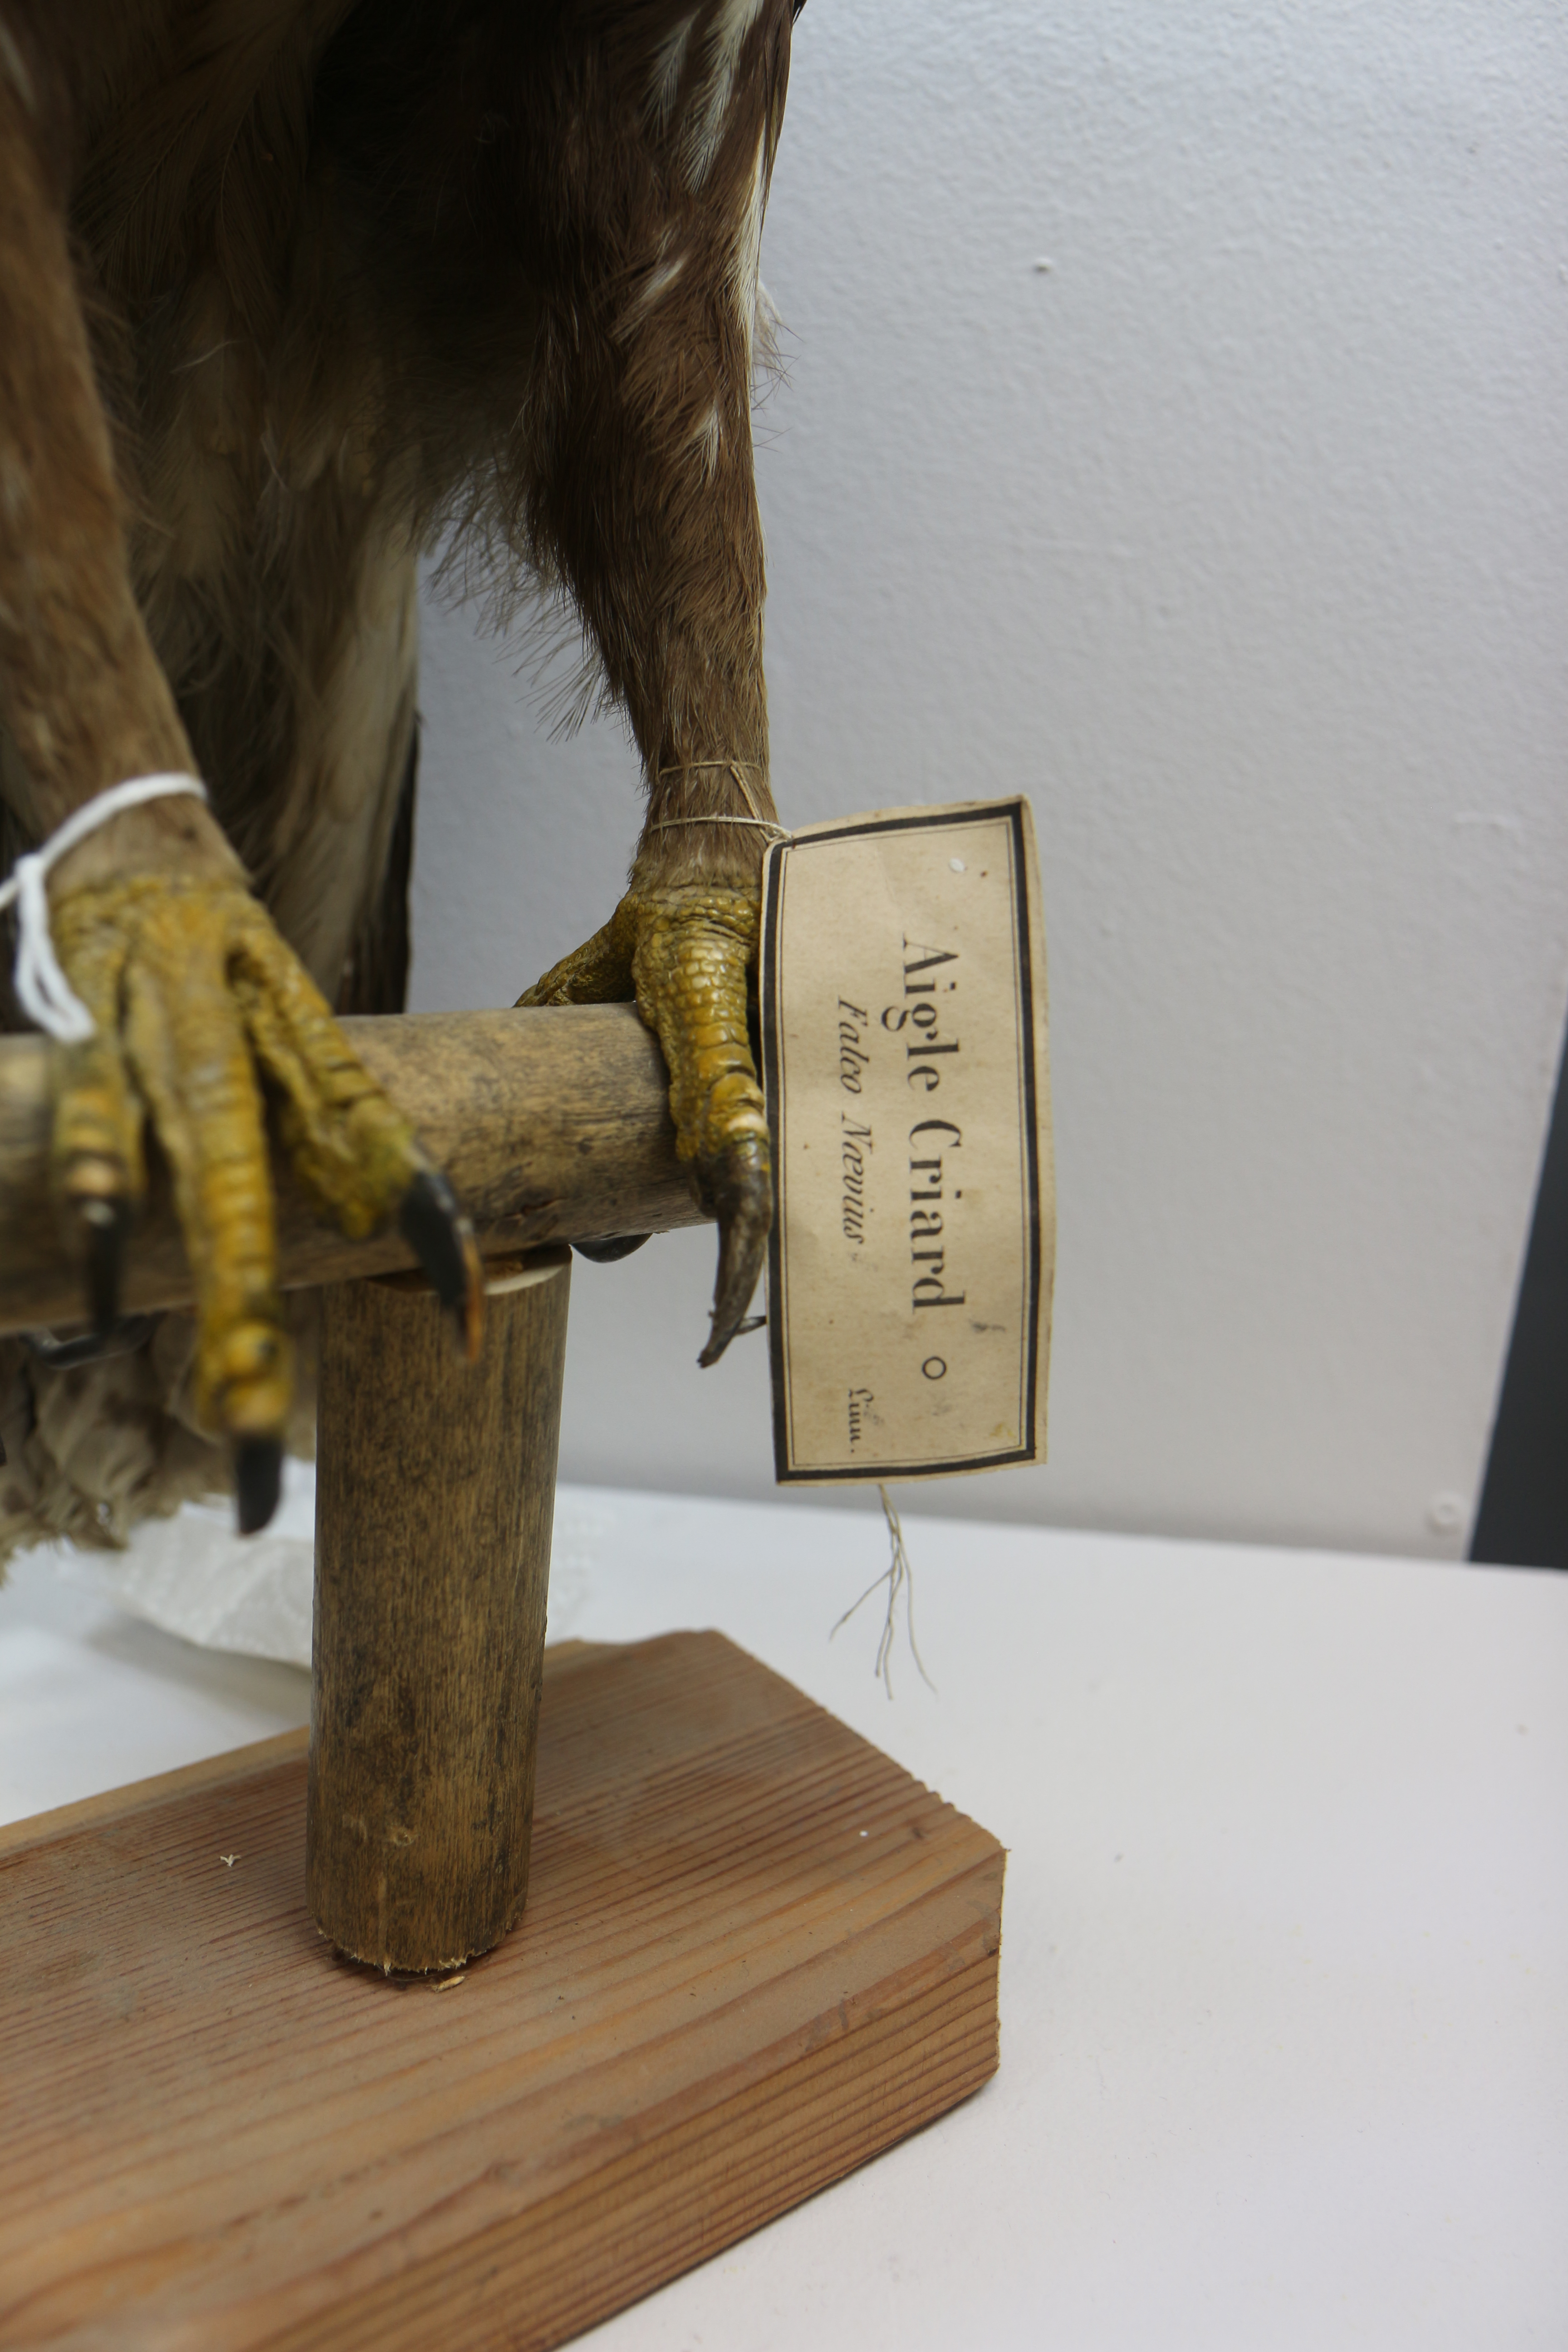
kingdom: Animalia
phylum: Chordata
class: Aves
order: Accipitriformes
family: Accipitridae
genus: Aquila
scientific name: Aquila clanga
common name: Greater spotted eagle
